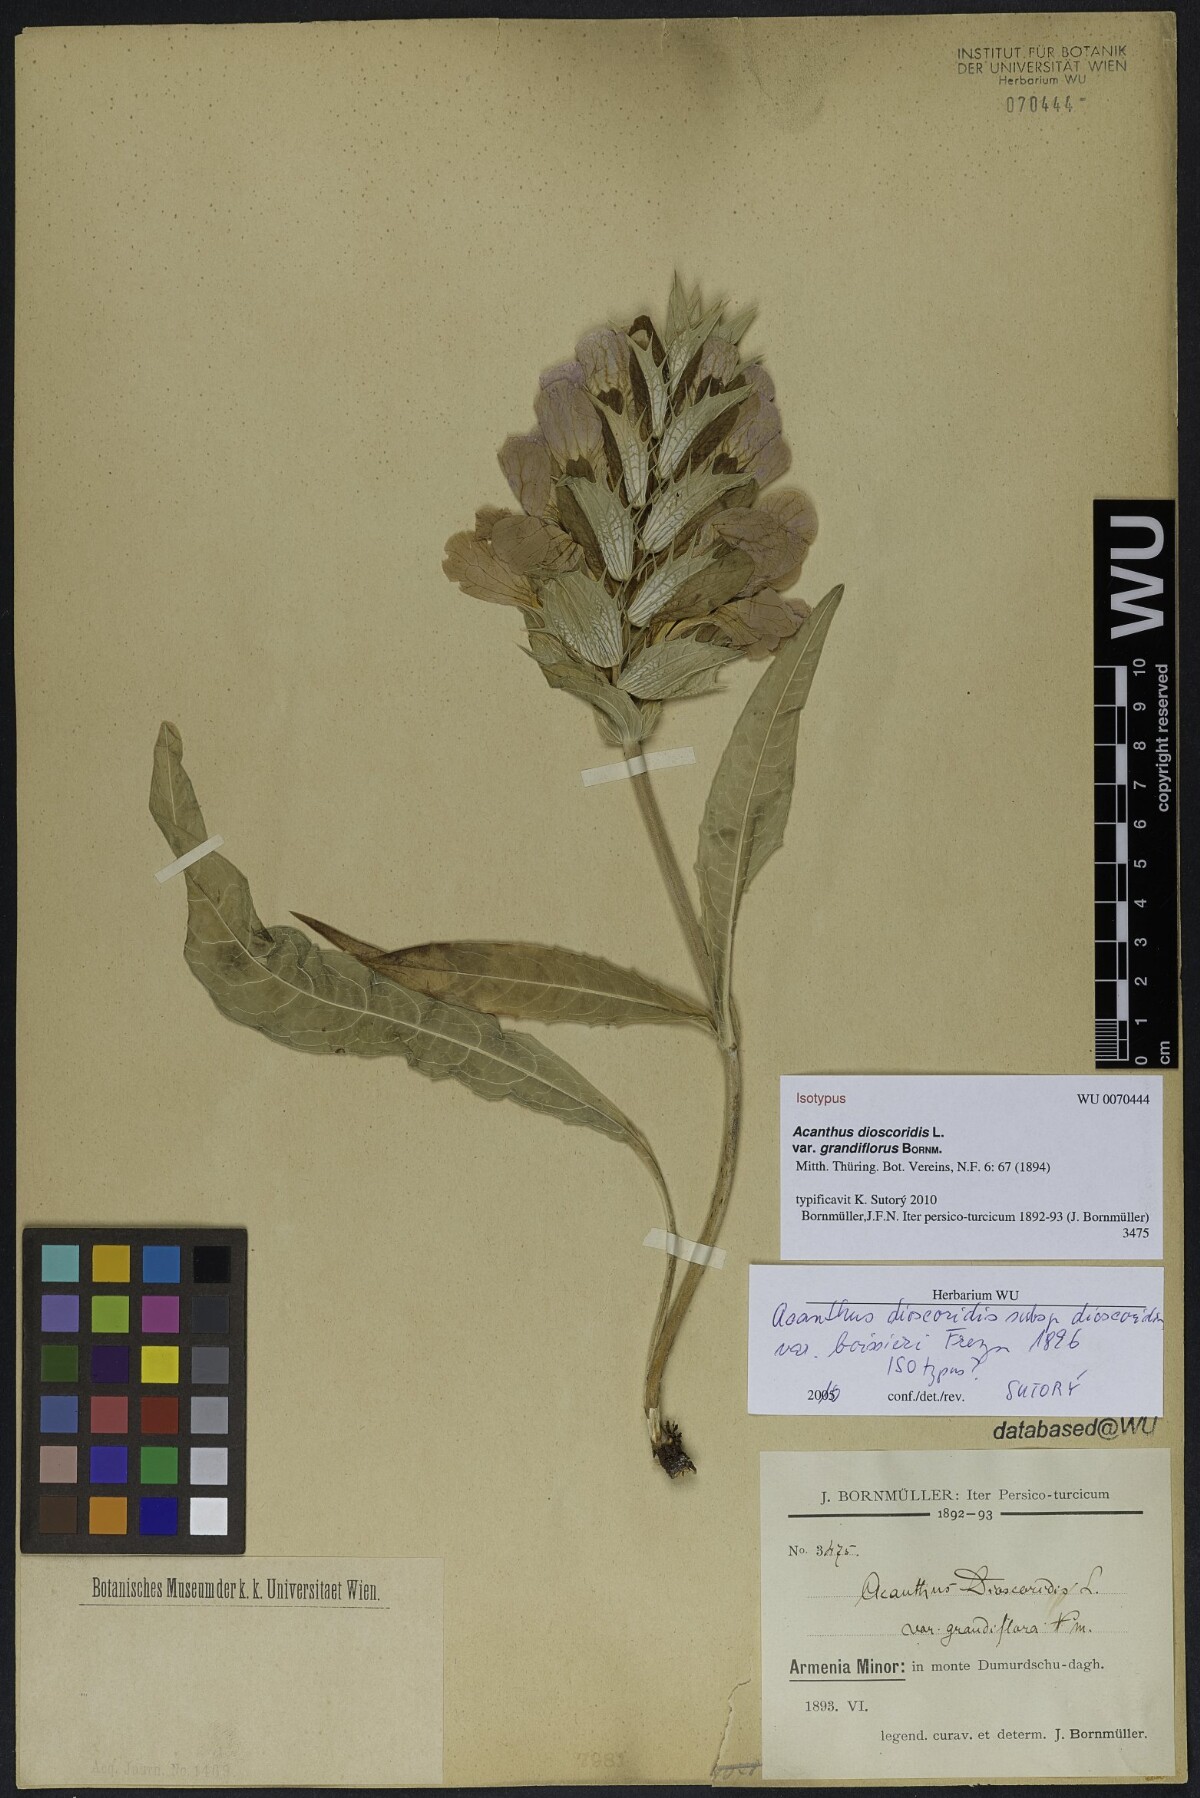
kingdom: Plantae
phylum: Tracheophyta
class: Magnoliopsida
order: Lamiales
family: Acanthaceae
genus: Acanthus
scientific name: Acanthus dioscoridis
